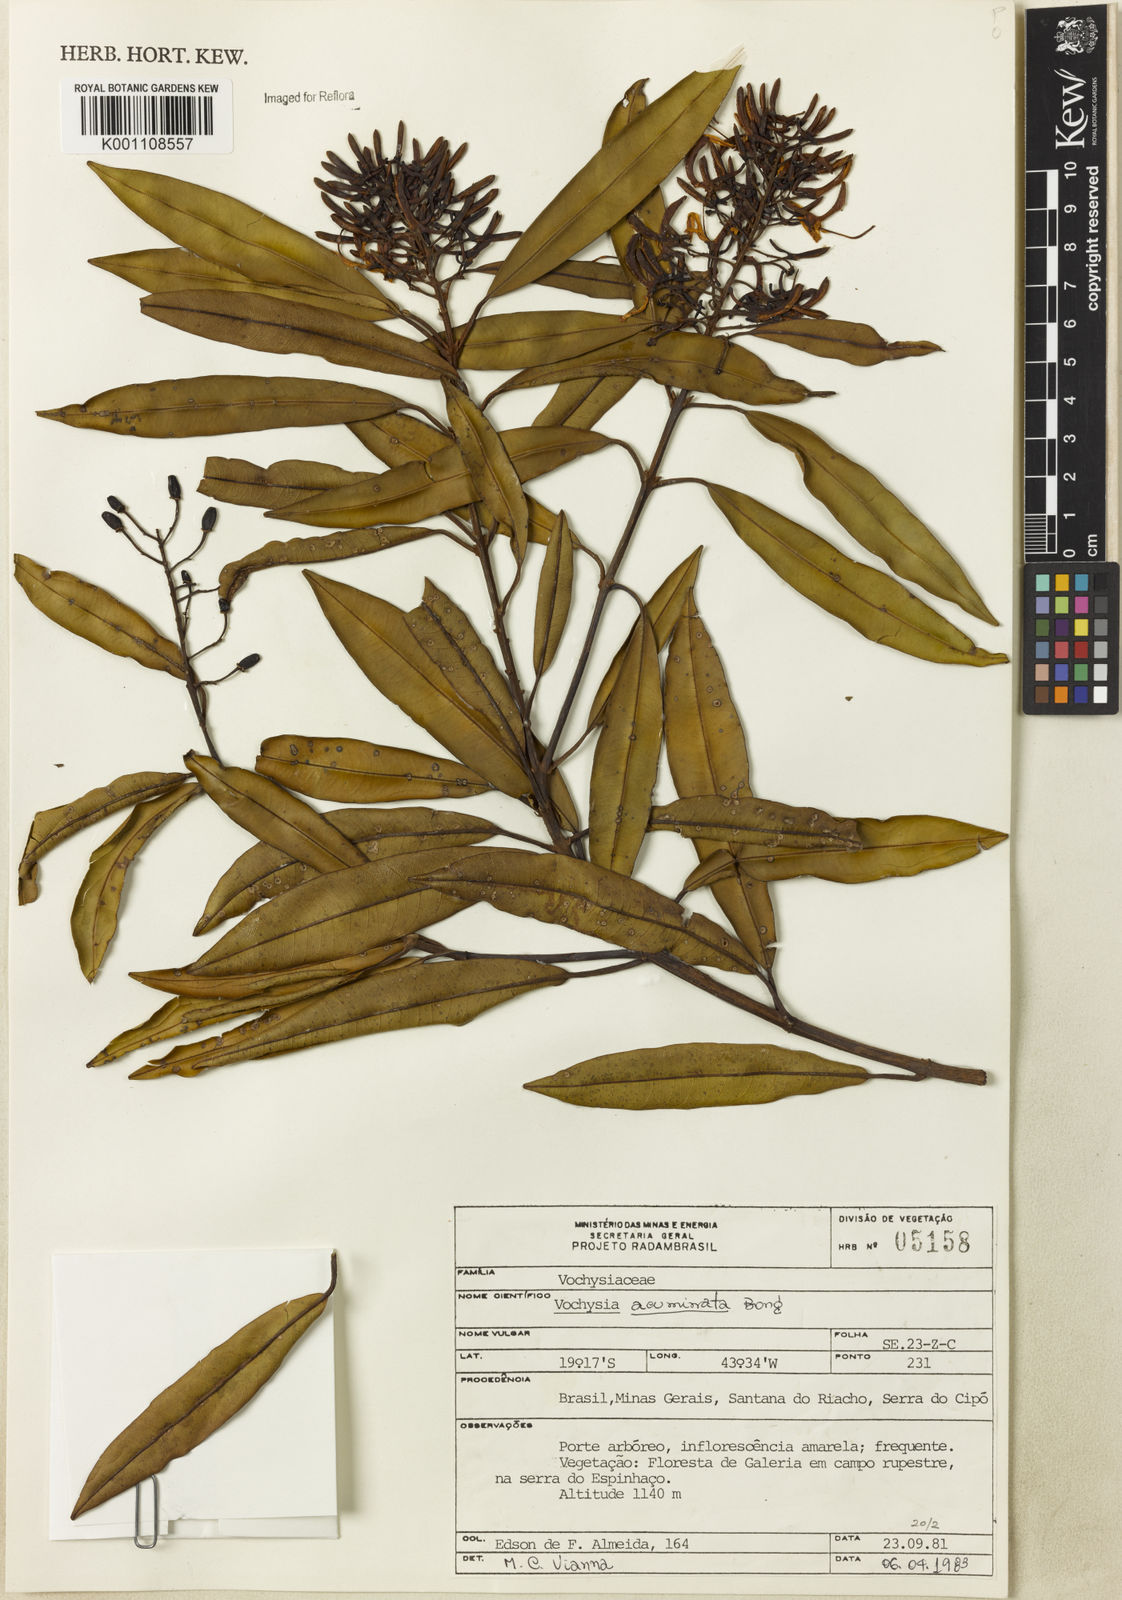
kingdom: Plantae
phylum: Tracheophyta
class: Magnoliopsida
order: Myrtales
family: Vochysiaceae
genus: Vochysia
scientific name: Vochysia acuminata
